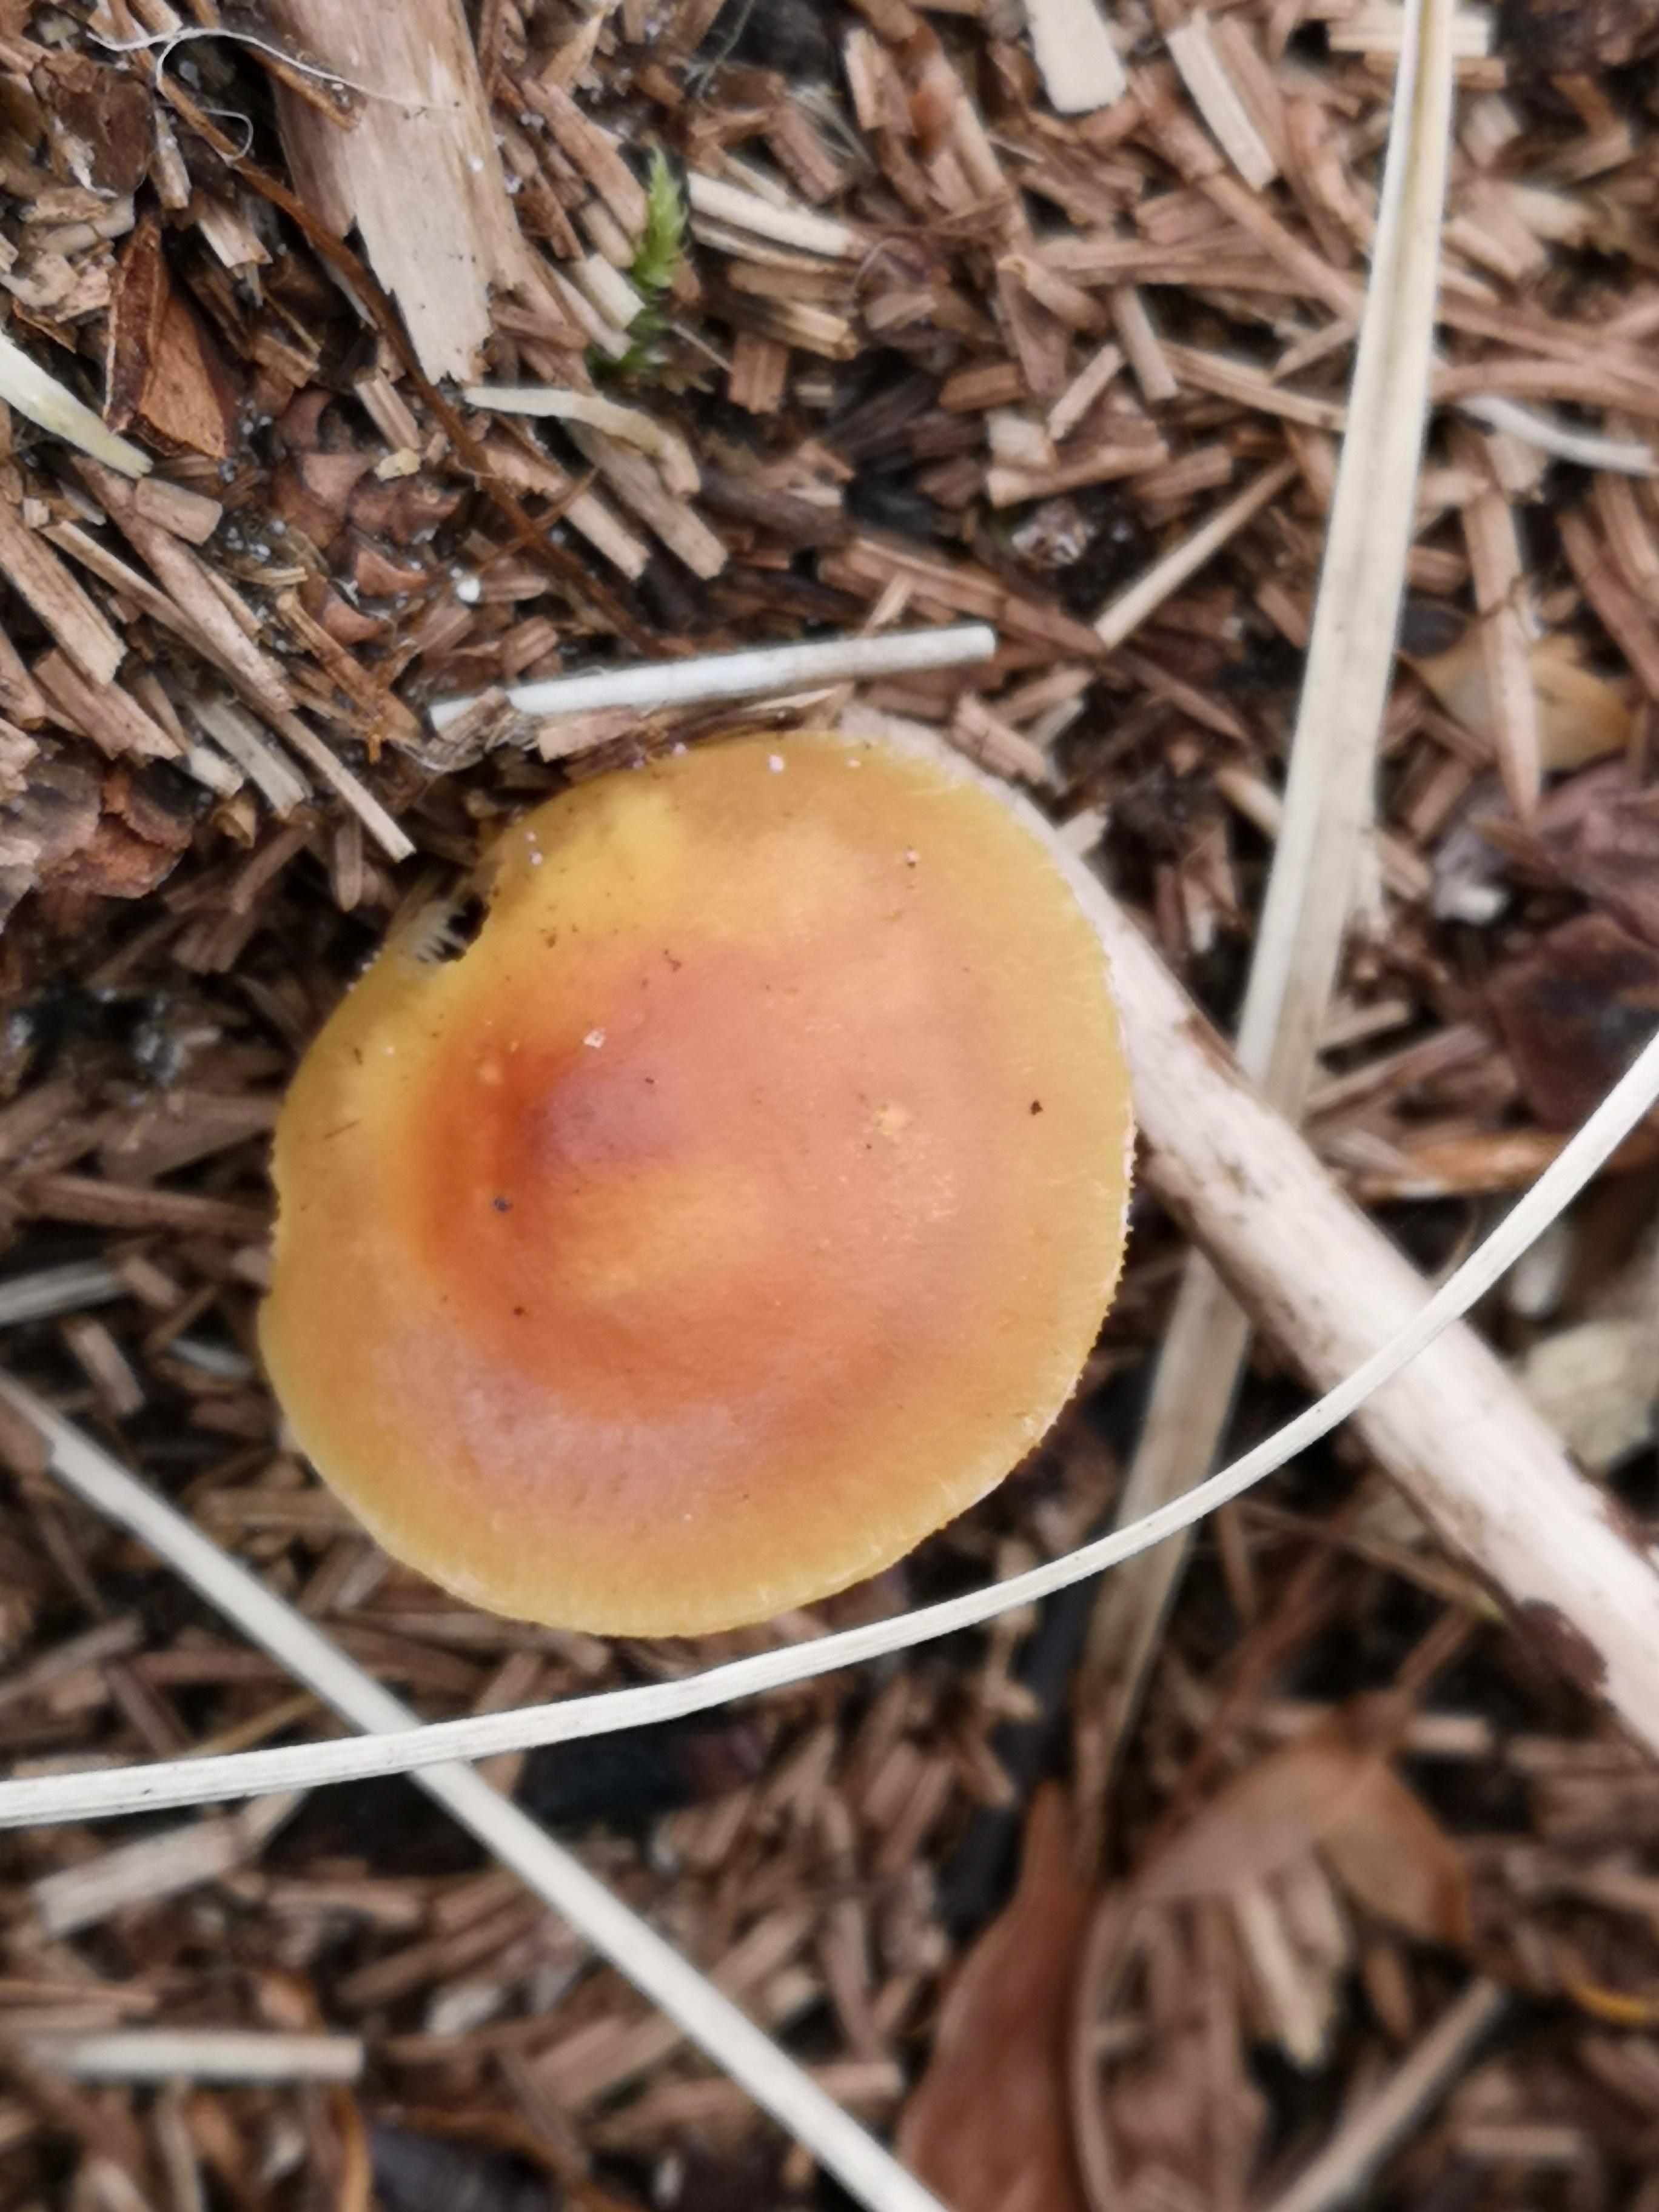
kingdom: Fungi
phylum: Basidiomycota
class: Agaricomycetes
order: Agaricales
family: Strophariaceae
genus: Hypholoma
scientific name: Hypholoma capnoides
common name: gran-svovlhat
